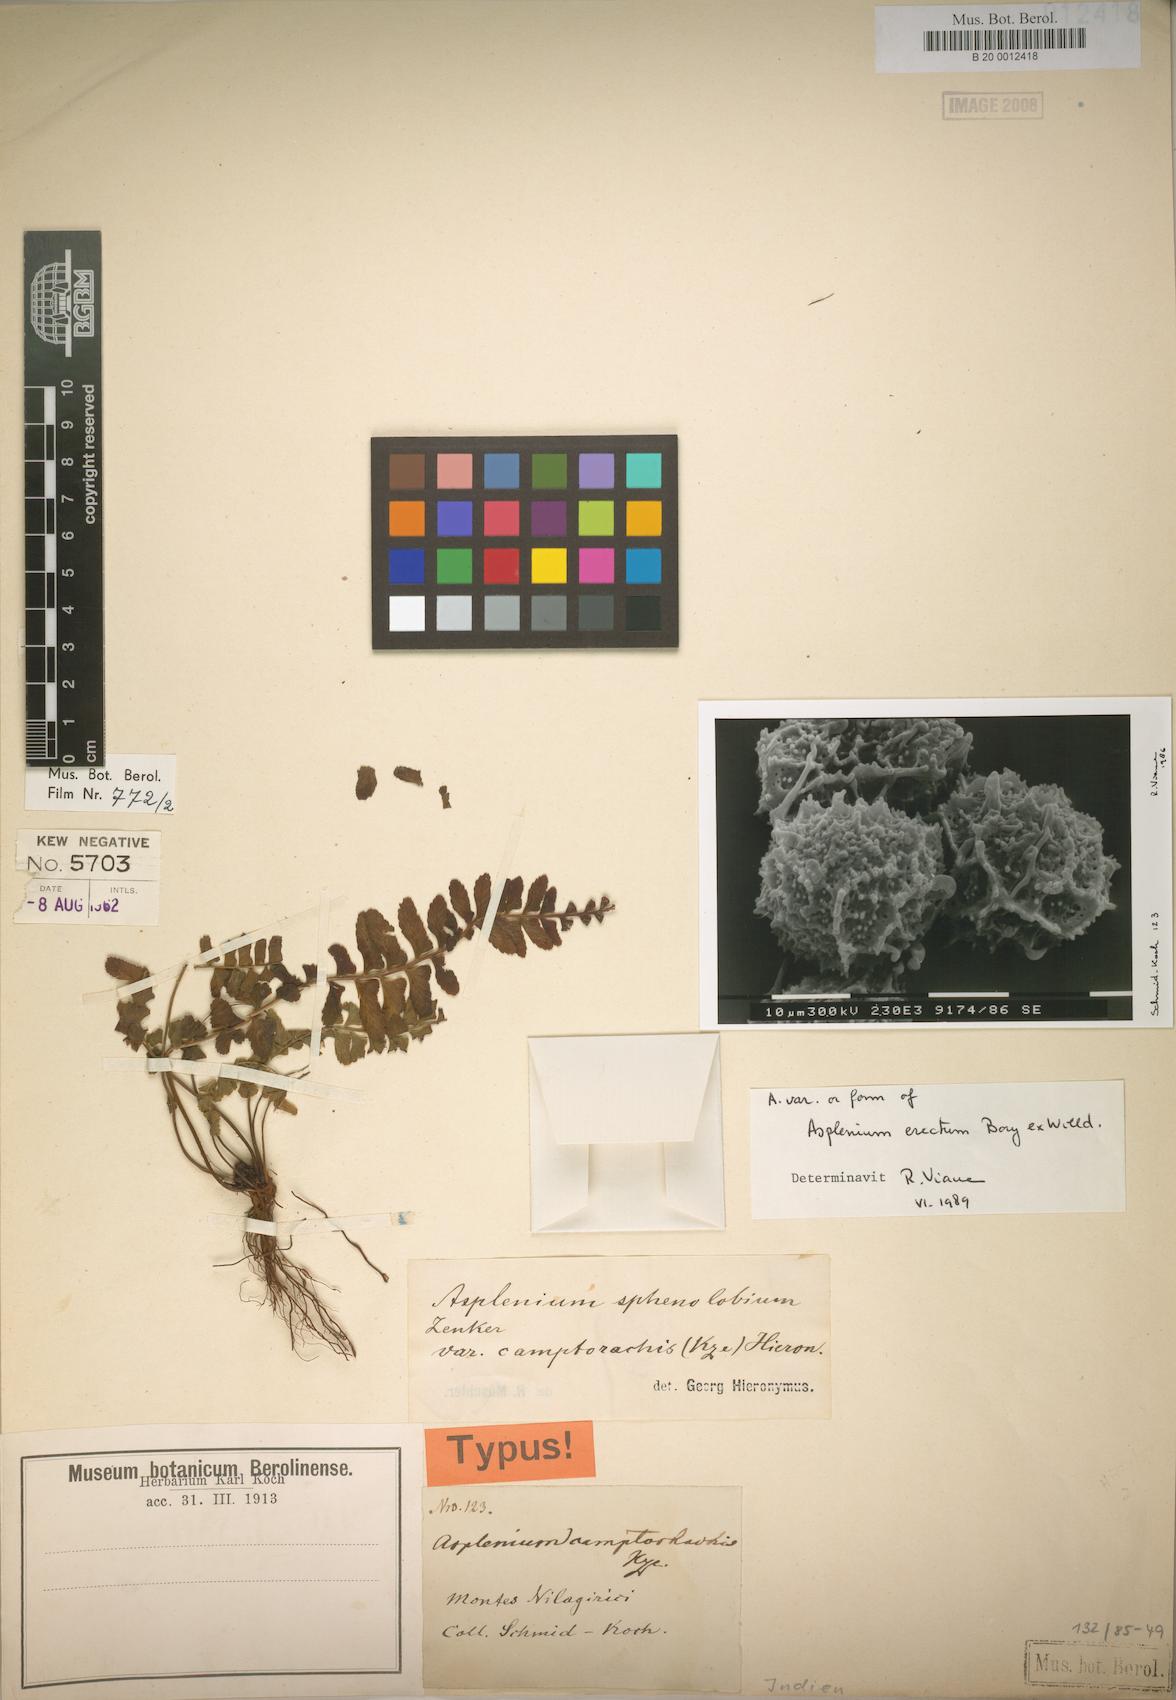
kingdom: Plantae
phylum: Tracheophyta
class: Polypodiopsida
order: Polypodiales
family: Aspleniaceae
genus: Asplenium
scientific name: Asplenium erectum
